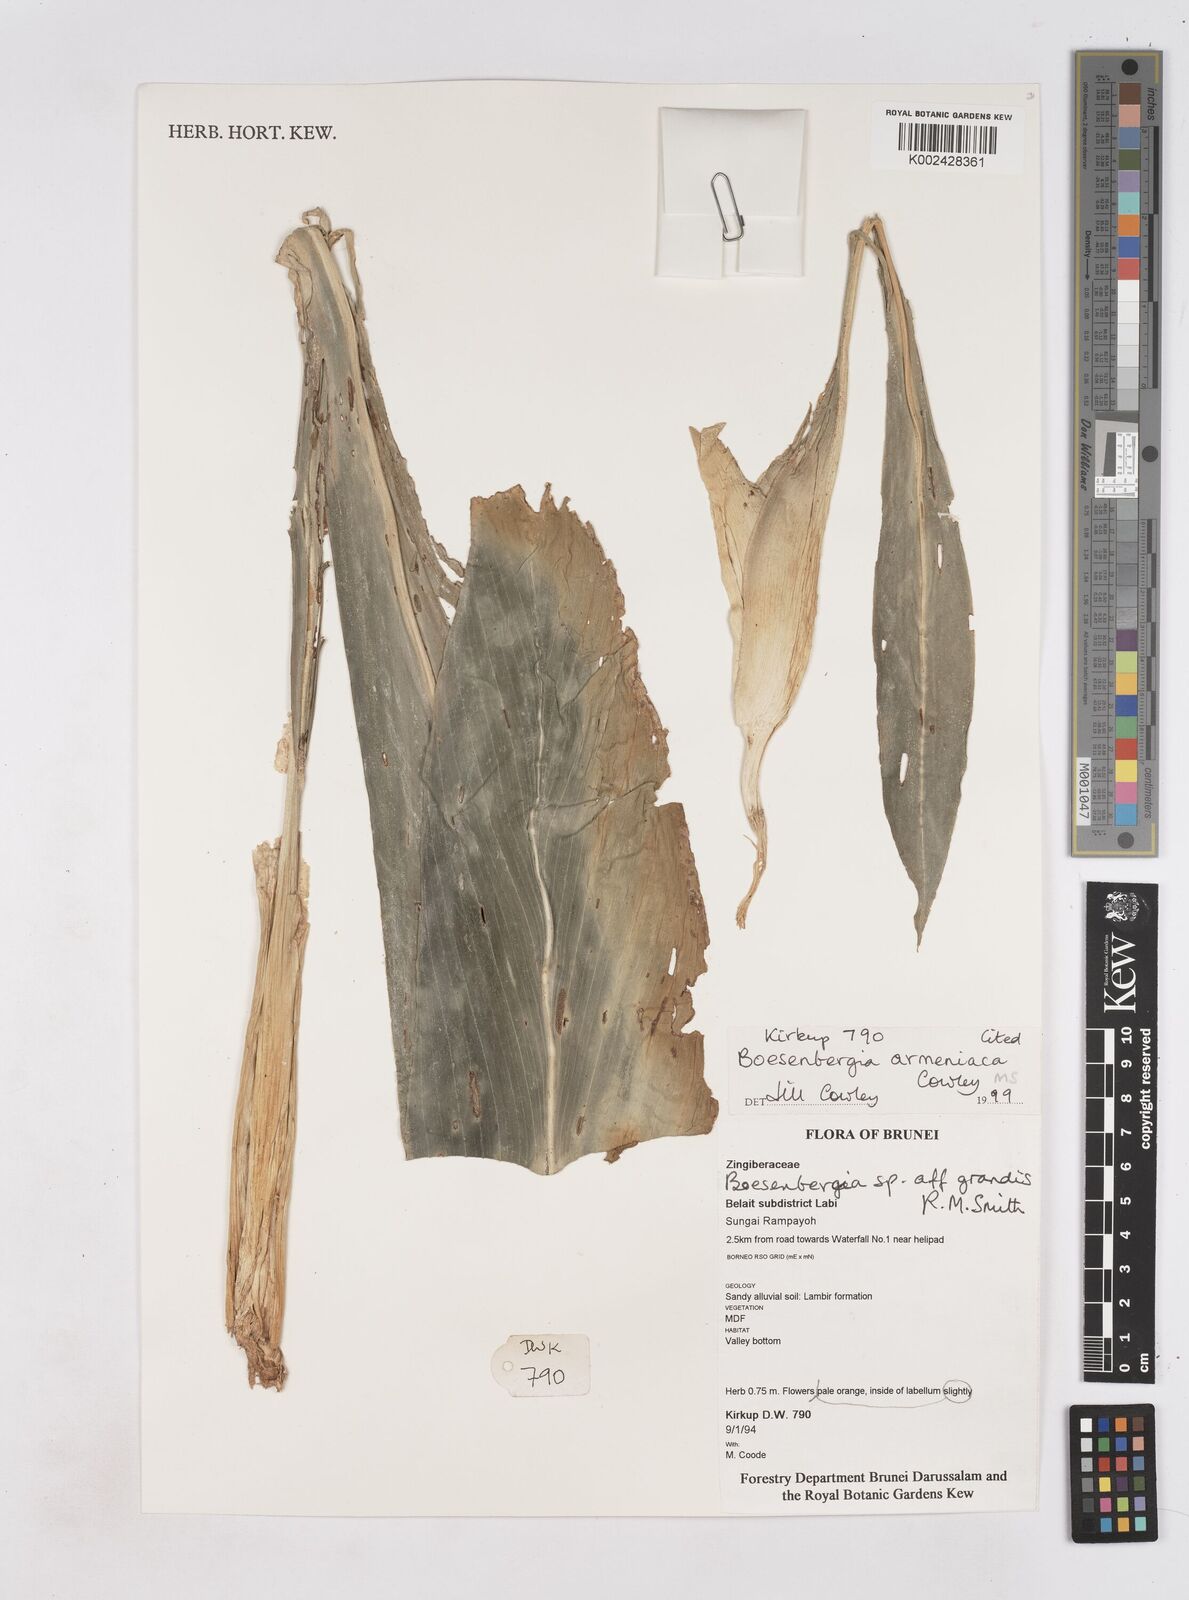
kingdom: Plantae
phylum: Tracheophyta
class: Liliopsida
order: Zingiberales
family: Zingiberaceae
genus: Boesenbergia
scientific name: Boesenbergia armeniaca
